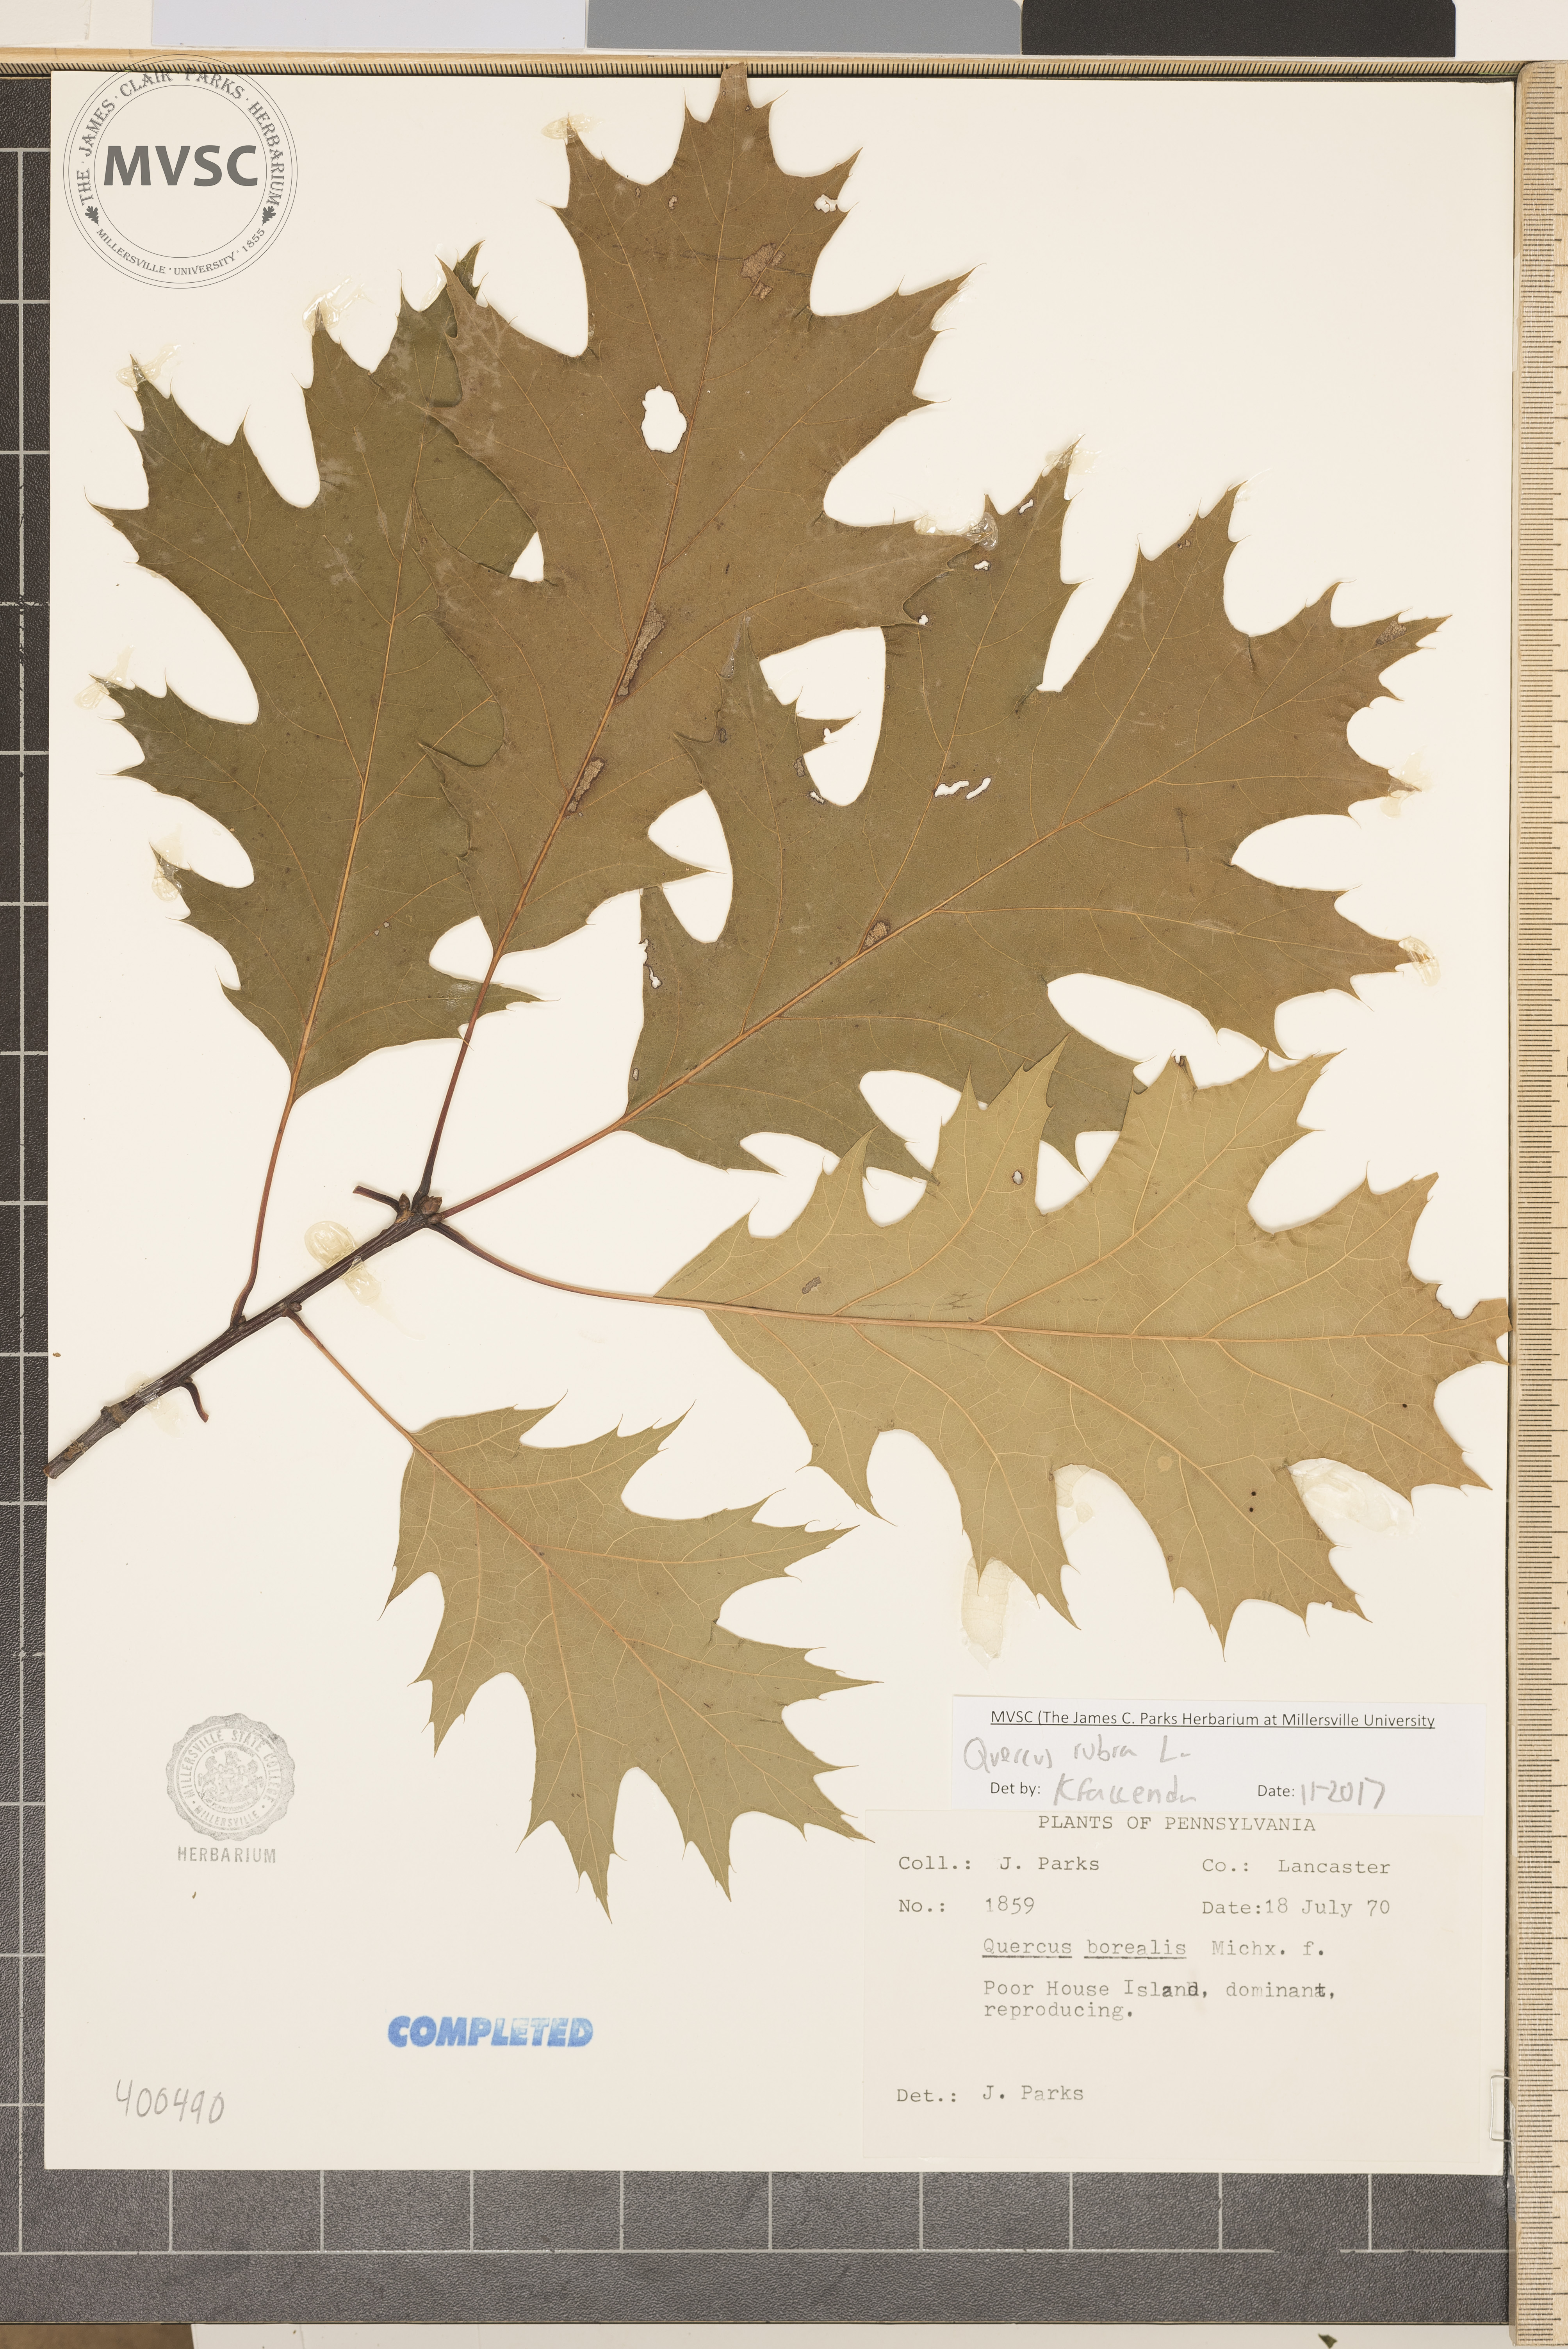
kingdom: Plantae
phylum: Tracheophyta
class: Magnoliopsida
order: Fagales
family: Fagaceae
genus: Quercus
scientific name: Quercus rubra
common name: red oak
